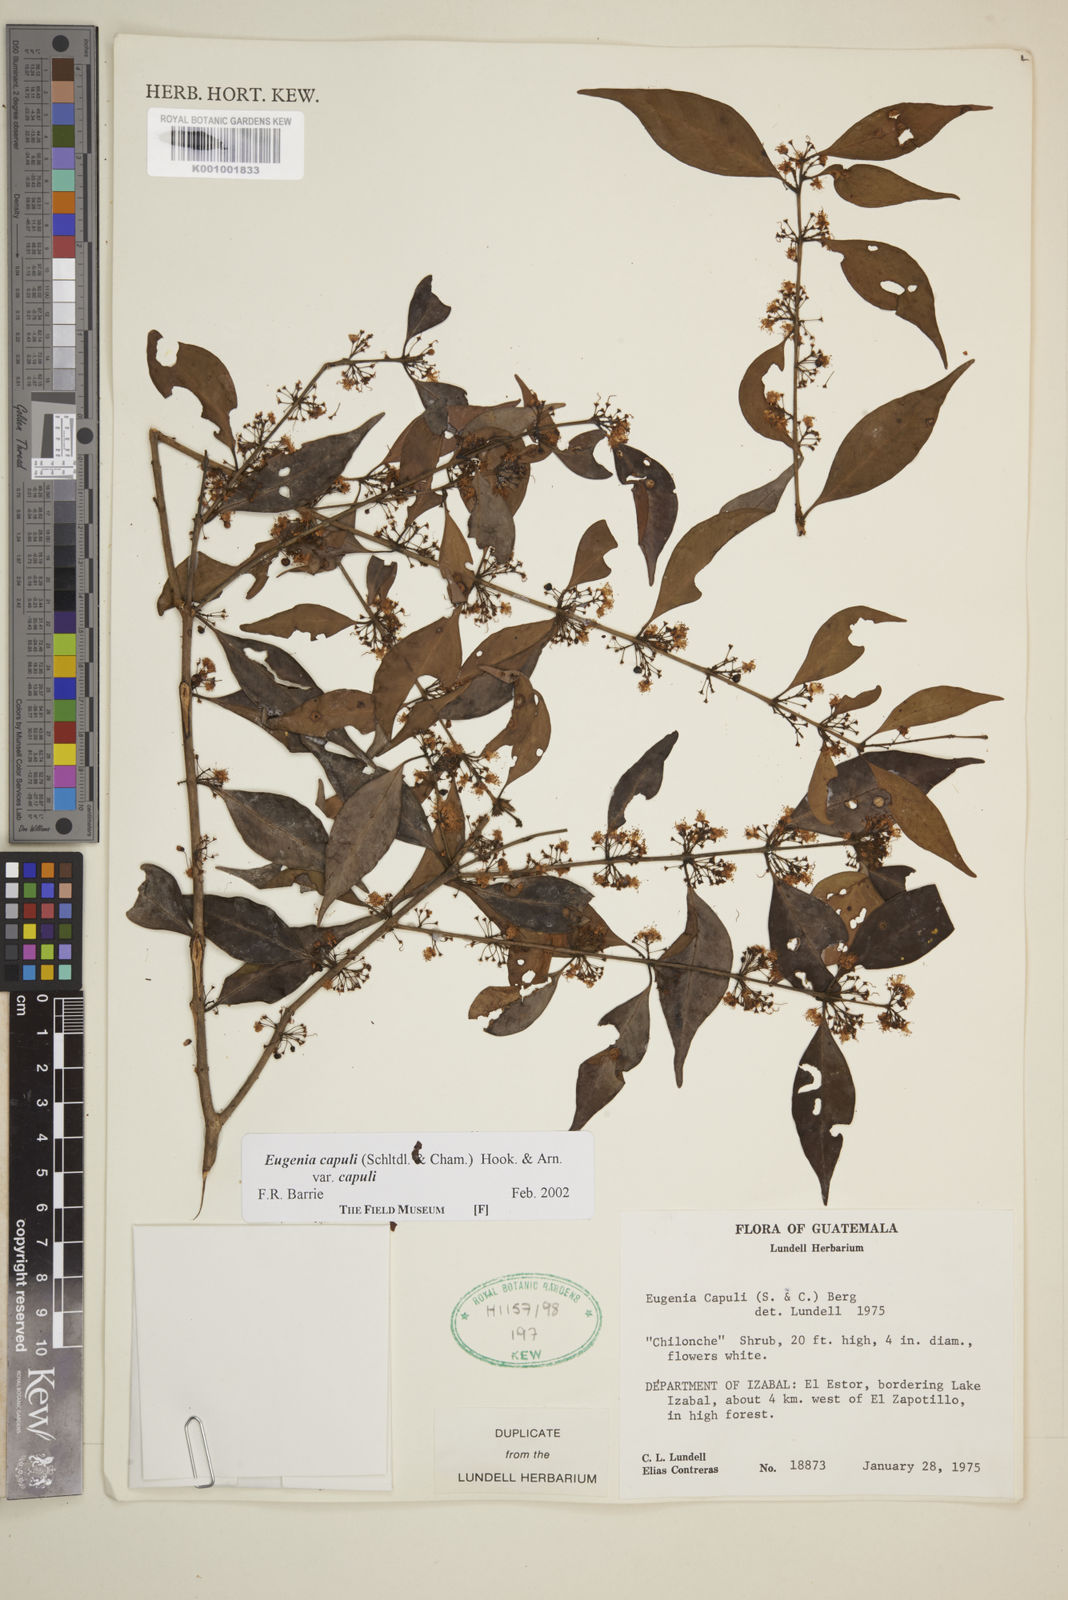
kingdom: Plantae
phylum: Tracheophyta
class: Magnoliopsida
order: Myrtales
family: Myrtaceae
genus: Eugenia
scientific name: Eugenia capuli
